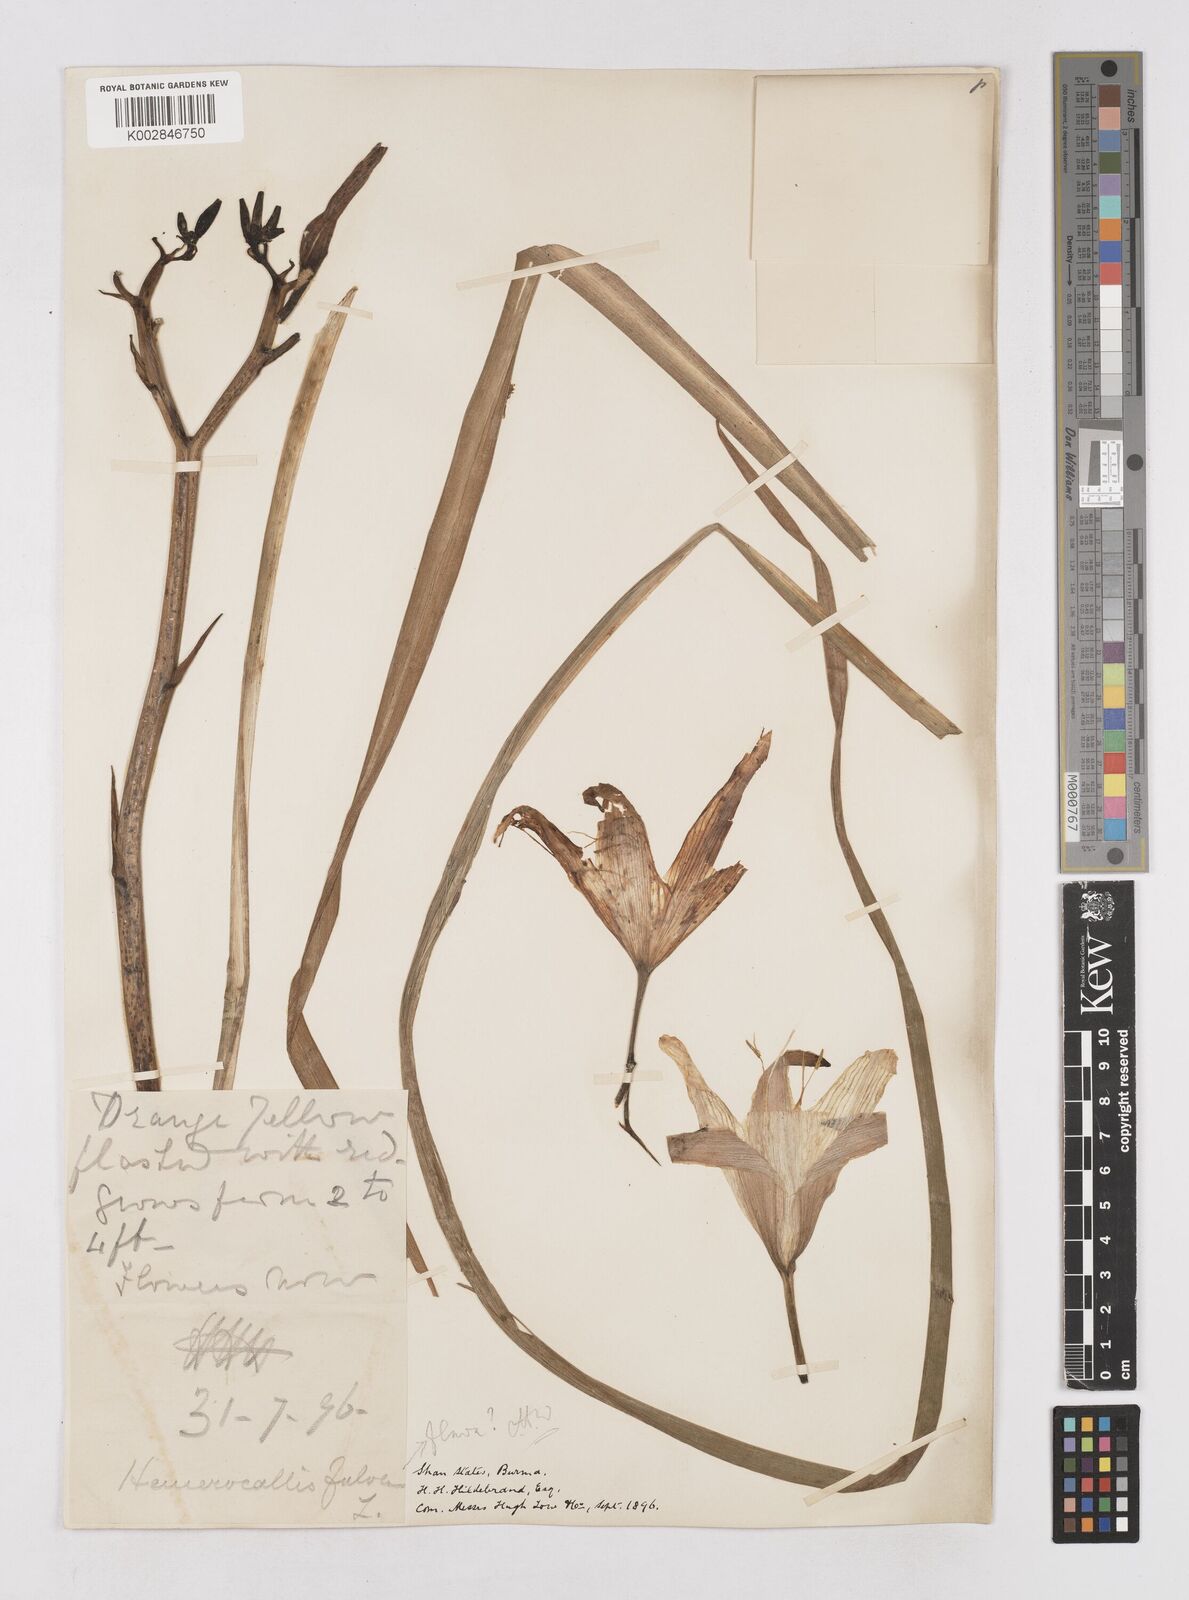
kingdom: Plantae
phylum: Tracheophyta
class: Liliopsida
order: Asparagales
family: Asphodelaceae
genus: Hemerocallis
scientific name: Hemerocallis fulva
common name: Orange day-lily
